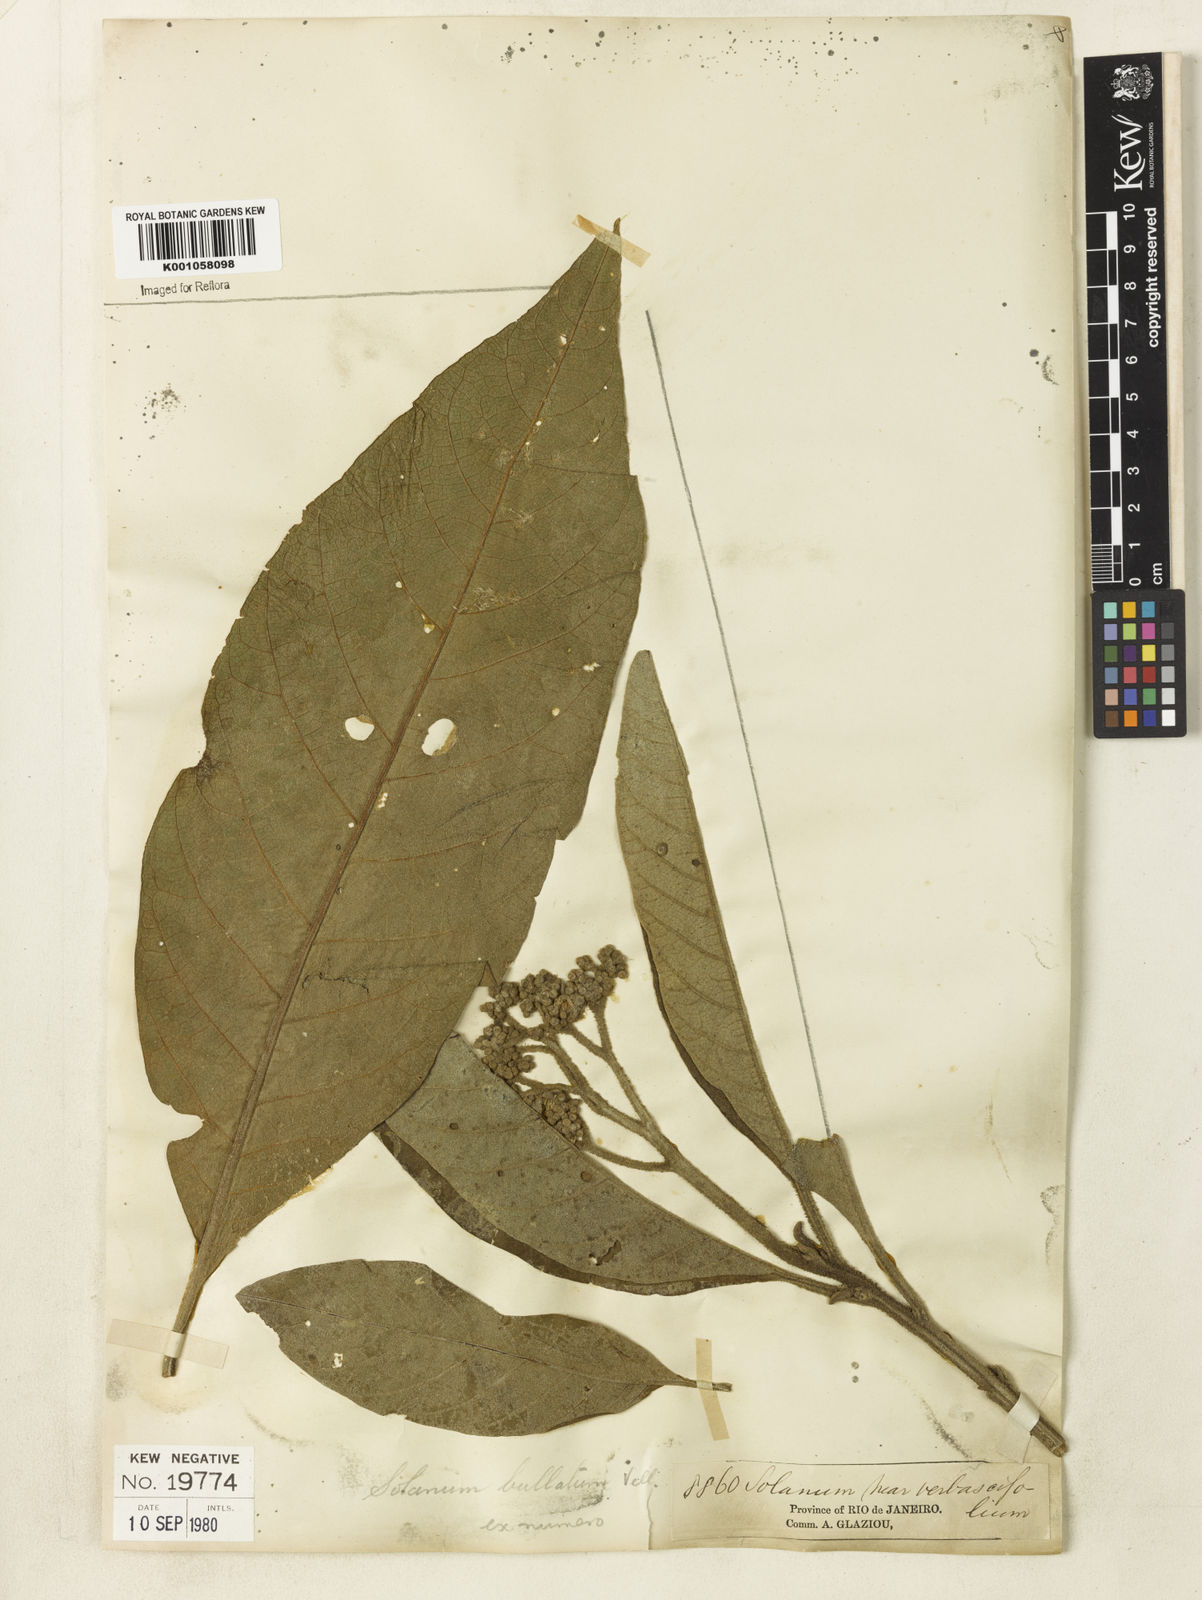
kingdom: Plantae
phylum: Tracheophyta
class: Magnoliopsida
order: Solanales
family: Solanaceae
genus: Solanum
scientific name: Solanum bullatum
